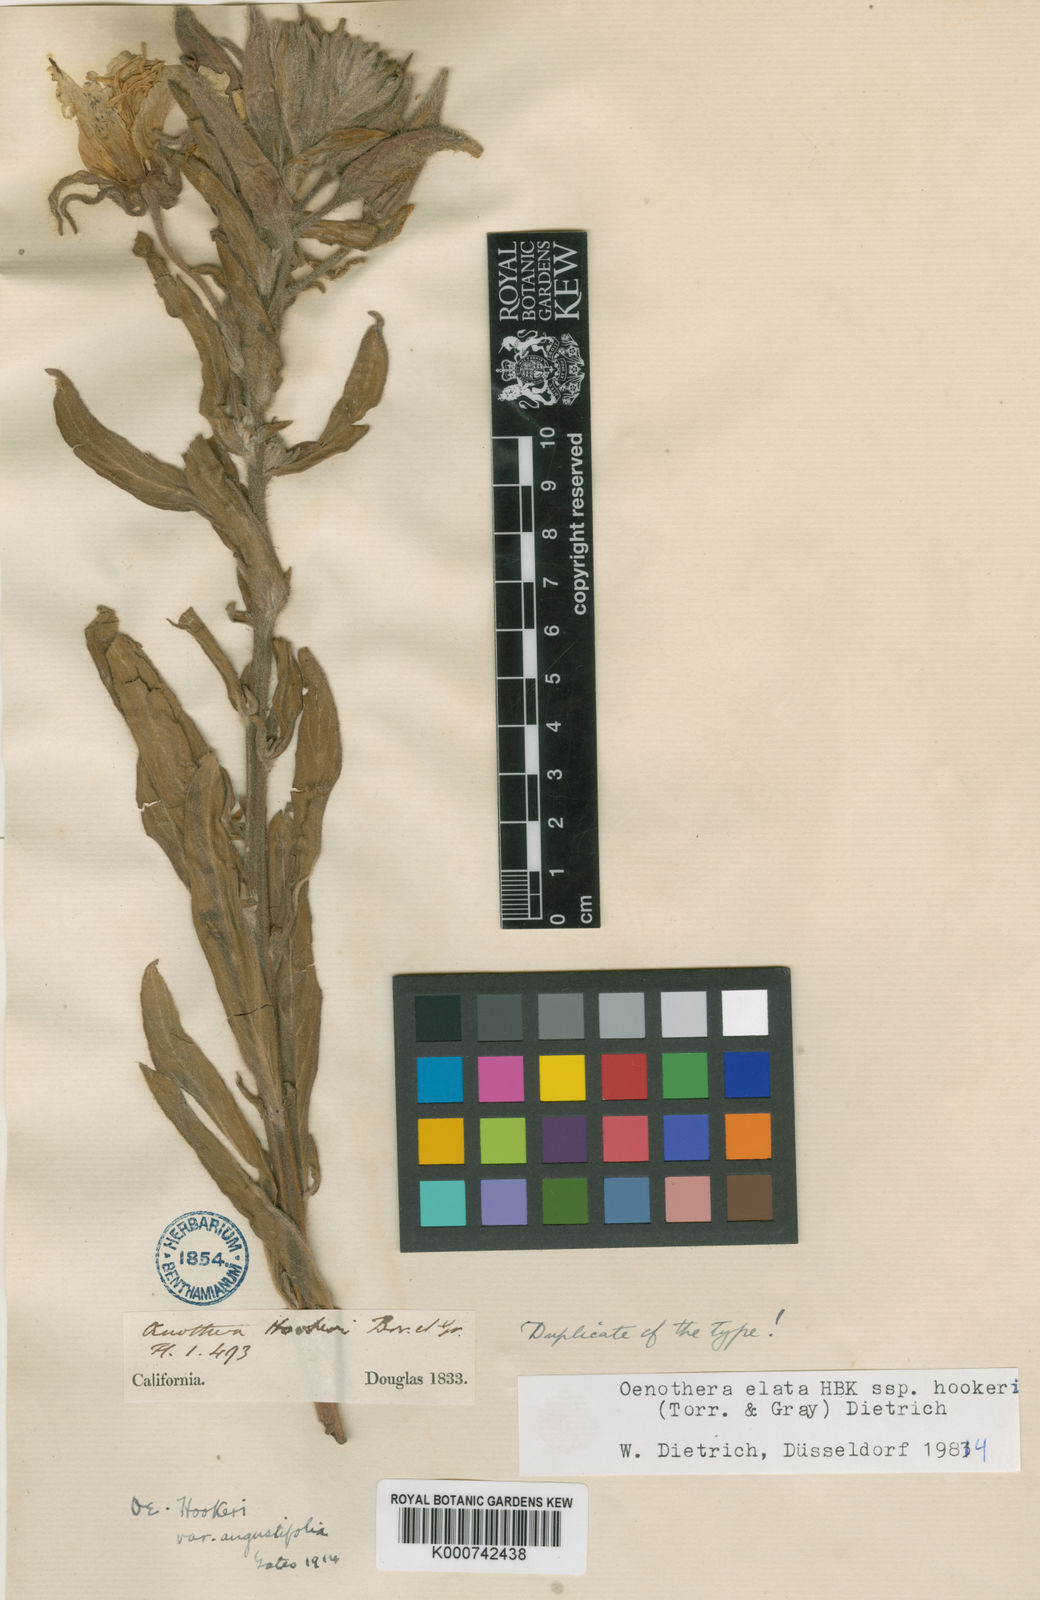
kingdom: Plantae
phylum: Tracheophyta
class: Magnoliopsida
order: Myrtales
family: Onagraceae
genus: Oenothera
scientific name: Oenothera elata
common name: Hooker's evening-primrose
